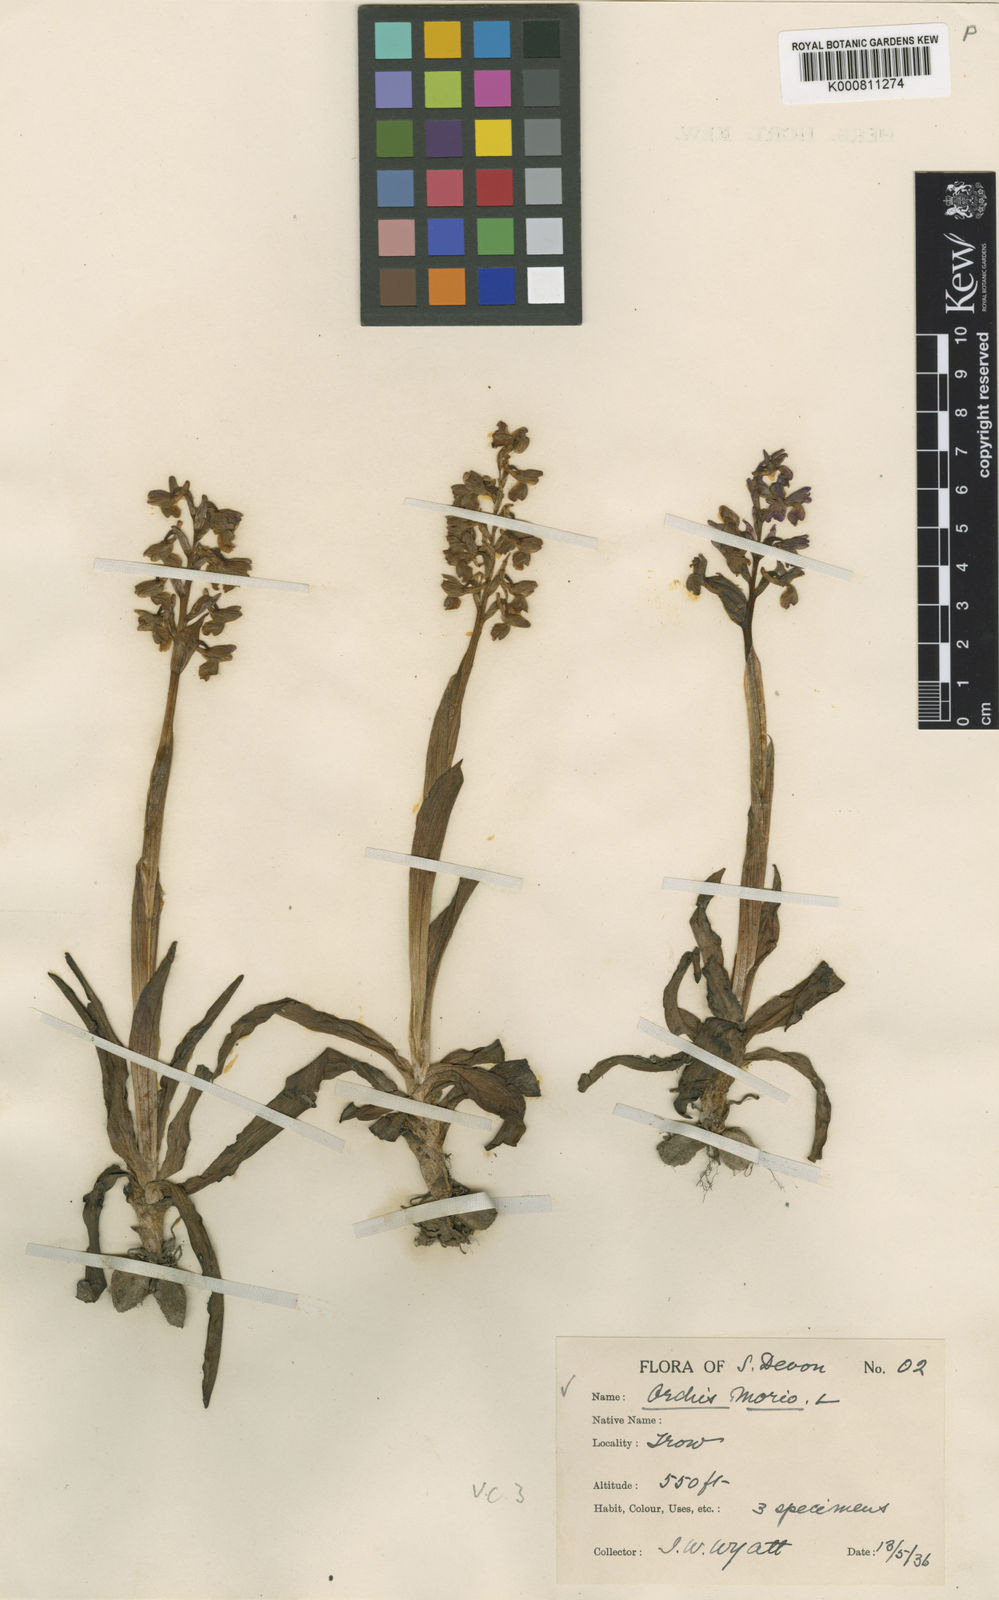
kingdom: Plantae
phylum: Tracheophyta
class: Liliopsida
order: Asparagales
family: Orchidaceae
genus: Anacamptis
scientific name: Anacamptis morio
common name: Green-winged orchid
